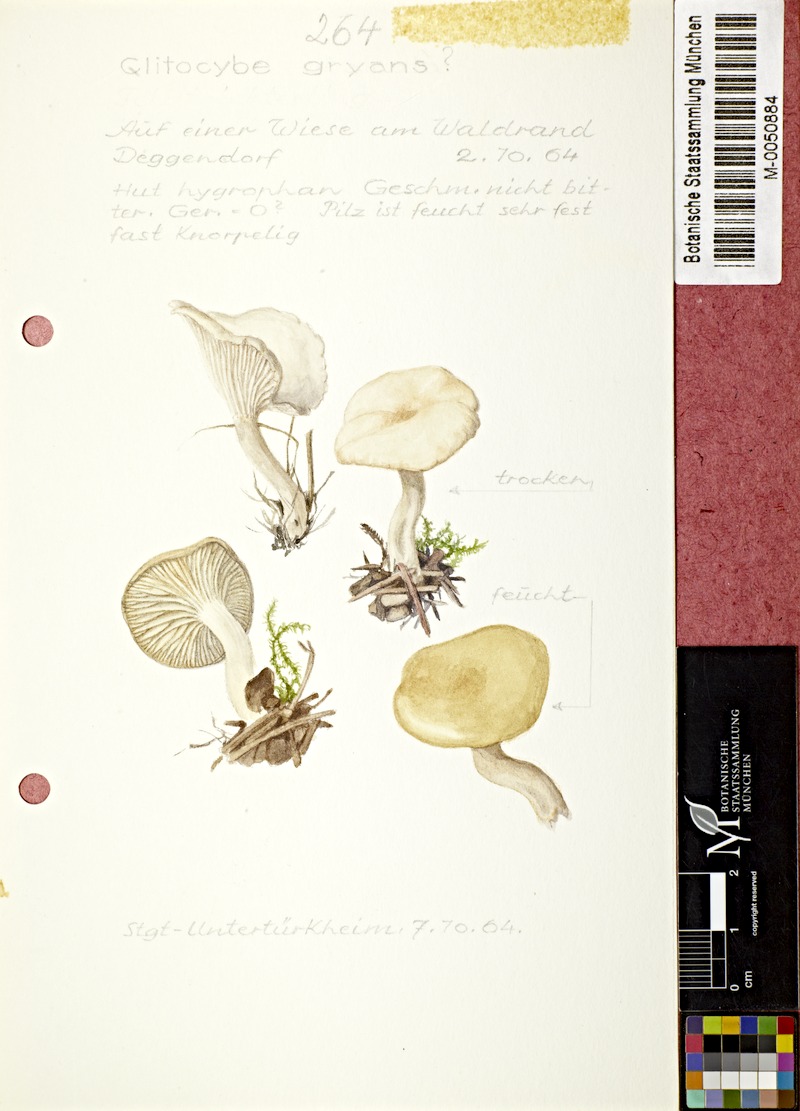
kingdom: Fungi
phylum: Basidiomycota
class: Agaricomycetes
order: Agaricales
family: Tricholomataceae
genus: Clitocybe
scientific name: Clitocybe
